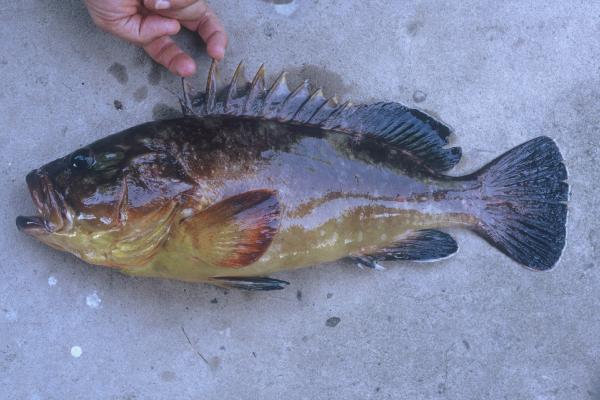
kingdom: Animalia
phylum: Chordata
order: Perciformes
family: Serranidae
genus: Epinephelus
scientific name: Epinephelus marginatus
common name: Dusky grouper
